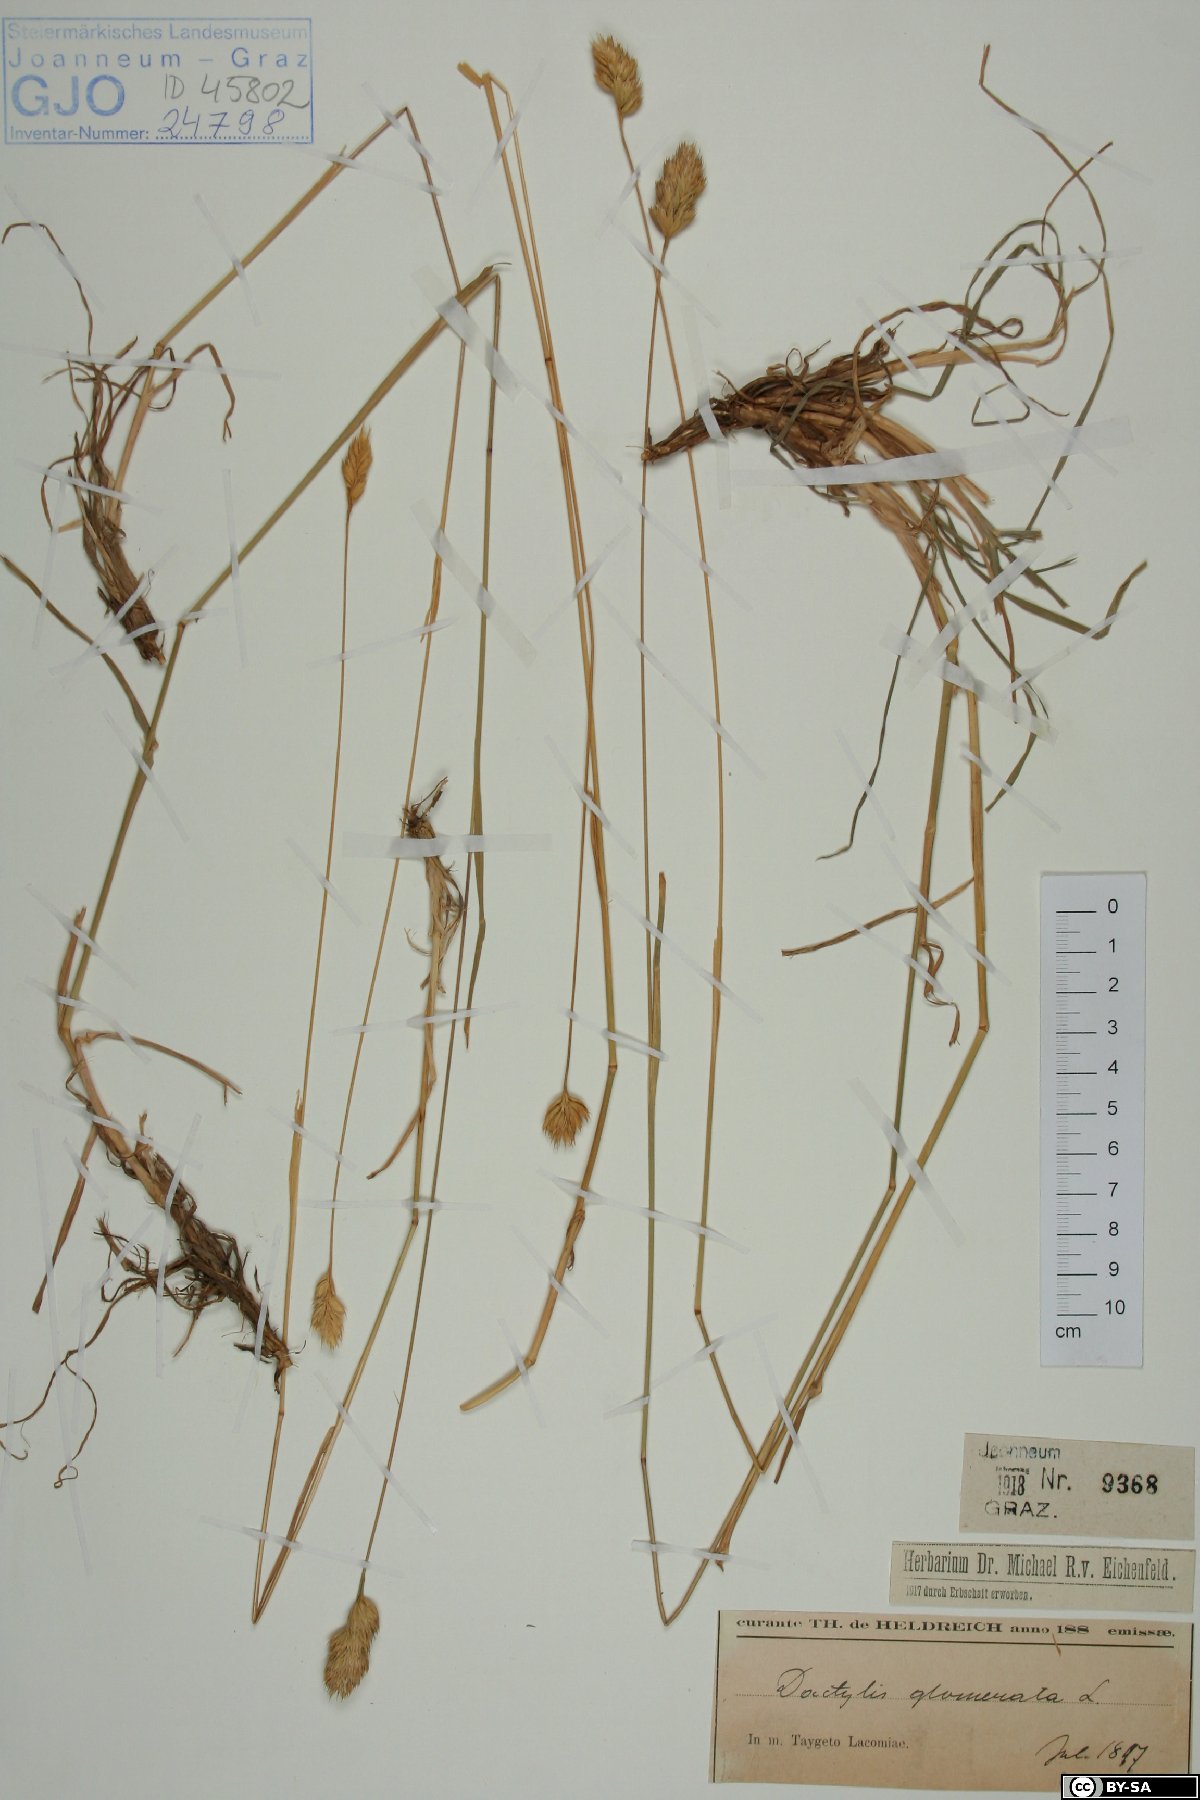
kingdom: Plantae
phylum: Tracheophyta
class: Liliopsida
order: Poales
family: Poaceae
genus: Dactylis
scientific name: Dactylis glomerata
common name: Orchardgrass
